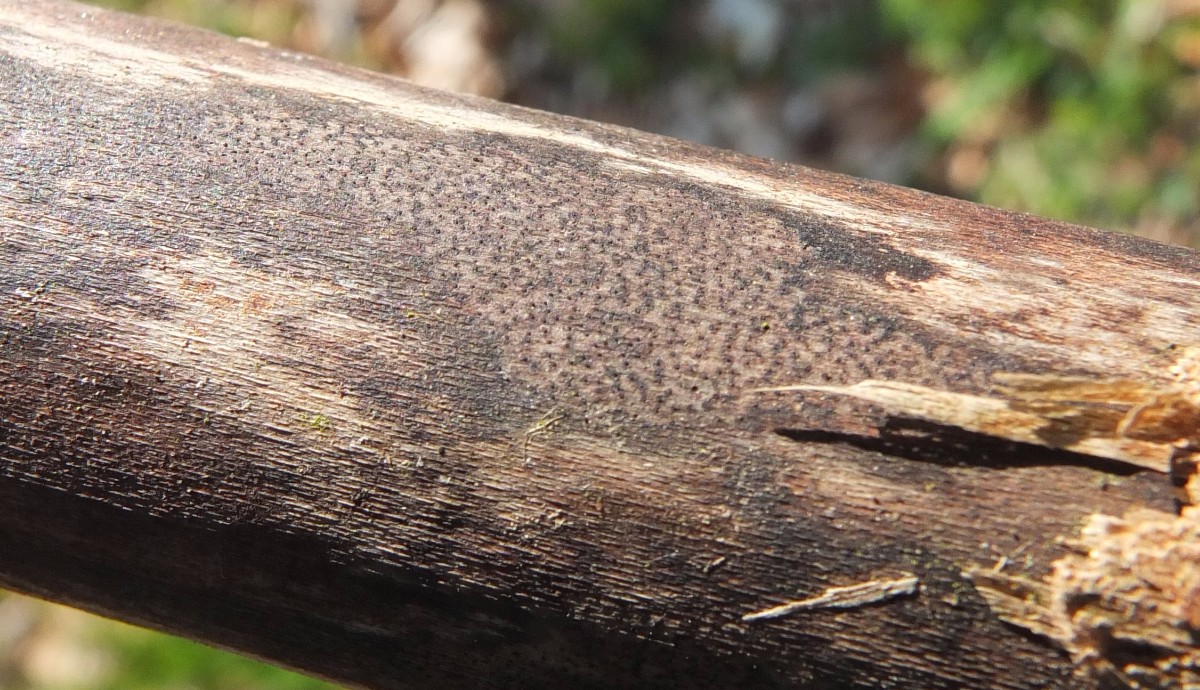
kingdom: Fungi
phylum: Ascomycota
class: Sordariomycetes
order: Xylariales
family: Diatrypaceae
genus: Eutypa
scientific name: Eutypa maura
